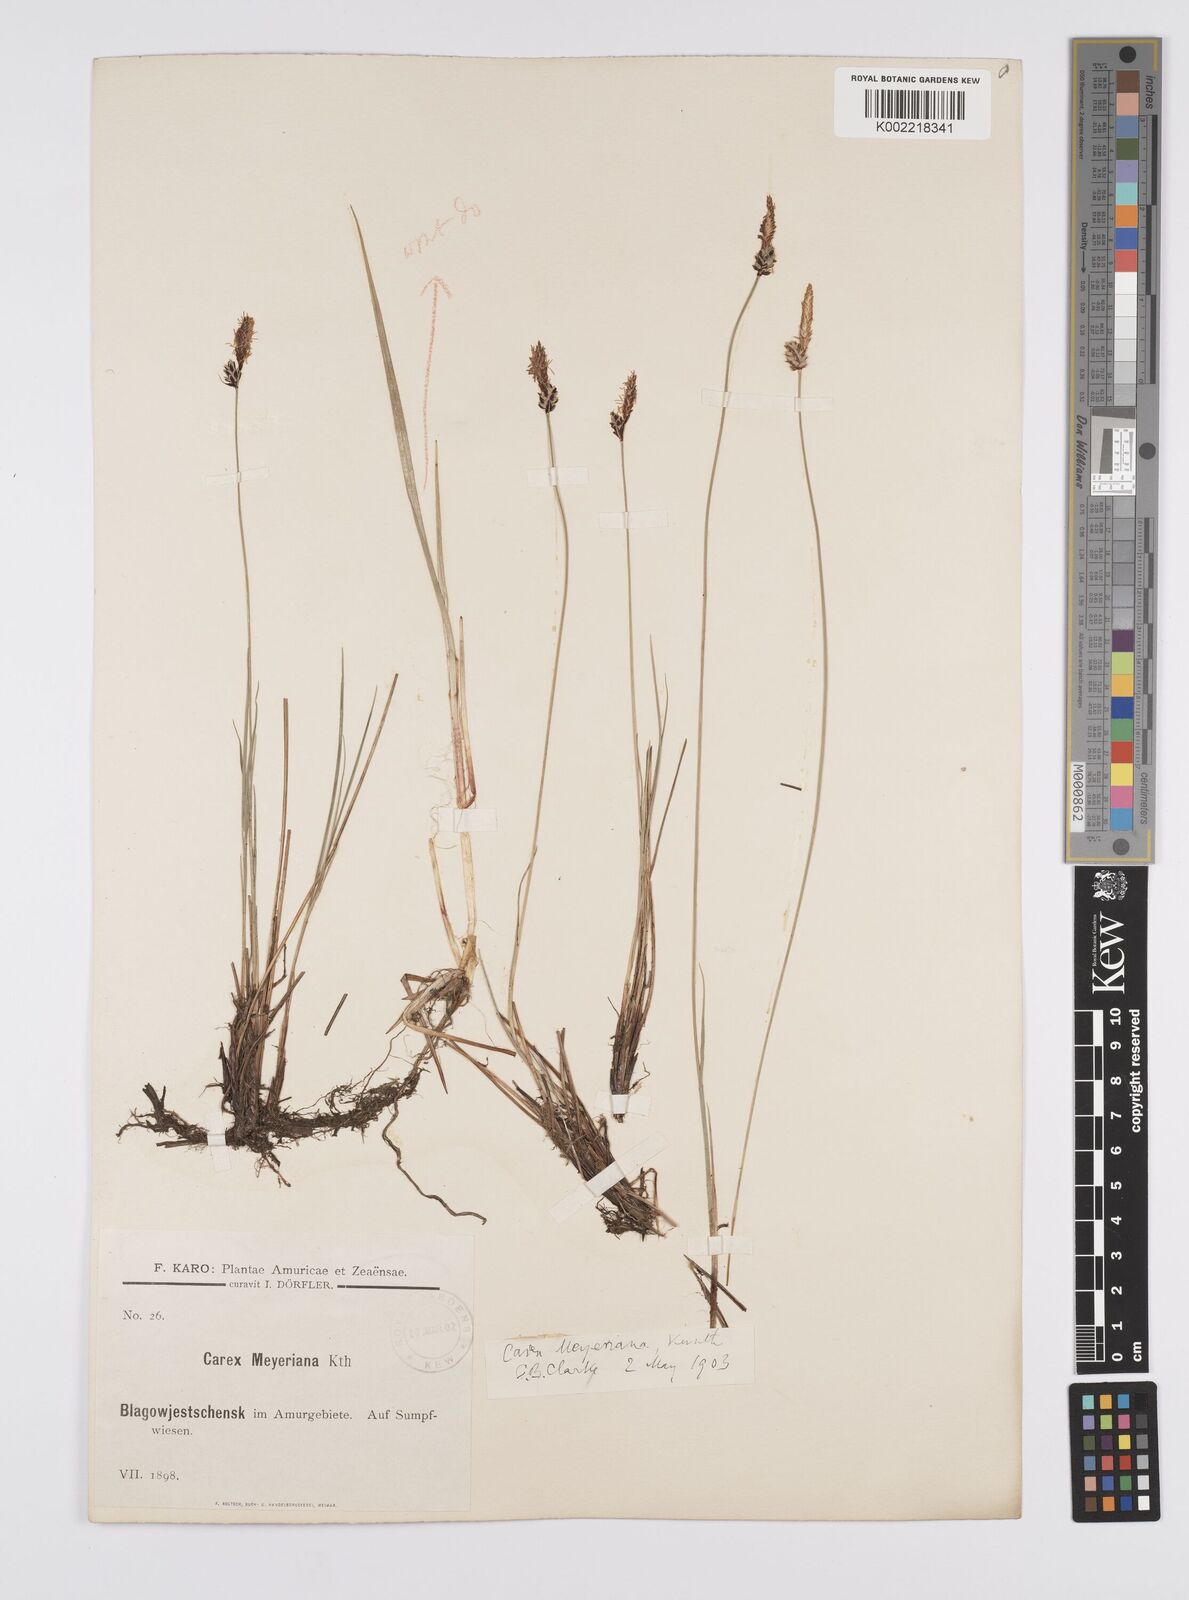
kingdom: Plantae
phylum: Tracheophyta
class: Liliopsida
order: Poales
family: Cyperaceae
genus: Carex
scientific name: Carex meyeriana
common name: Wula sedge
